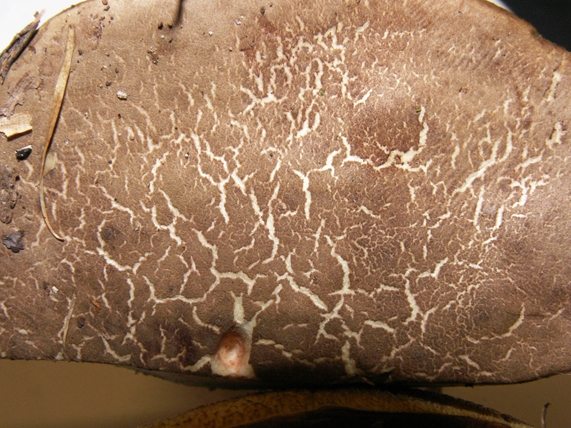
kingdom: Fungi
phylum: Basidiomycota
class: Agaricomycetes
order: Boletales
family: Boletaceae
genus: Xerocomellus
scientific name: Xerocomellus cisalpinus
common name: finsprukken rørhat
